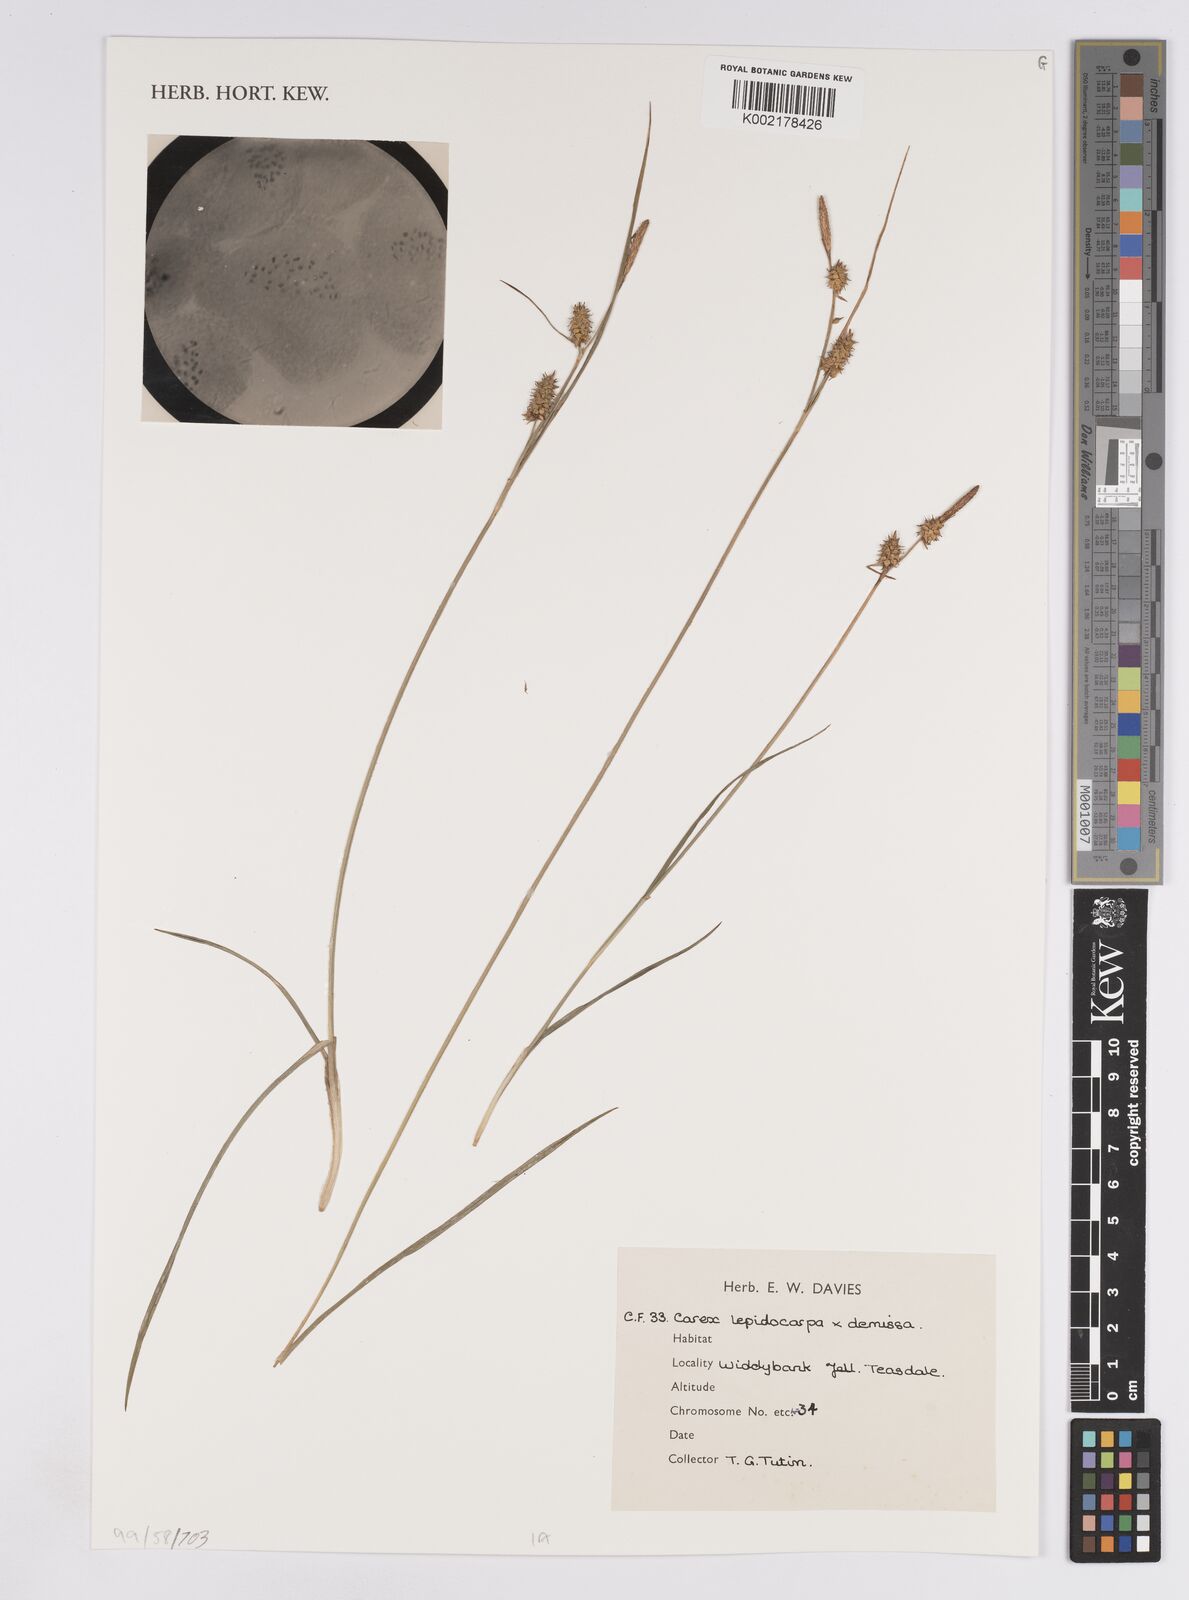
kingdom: Plantae
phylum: Tracheophyta
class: Liliopsida
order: Poales
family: Cyperaceae
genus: Carex
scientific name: Carex lepidocarpa
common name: Long-stalked yellow-sedge
